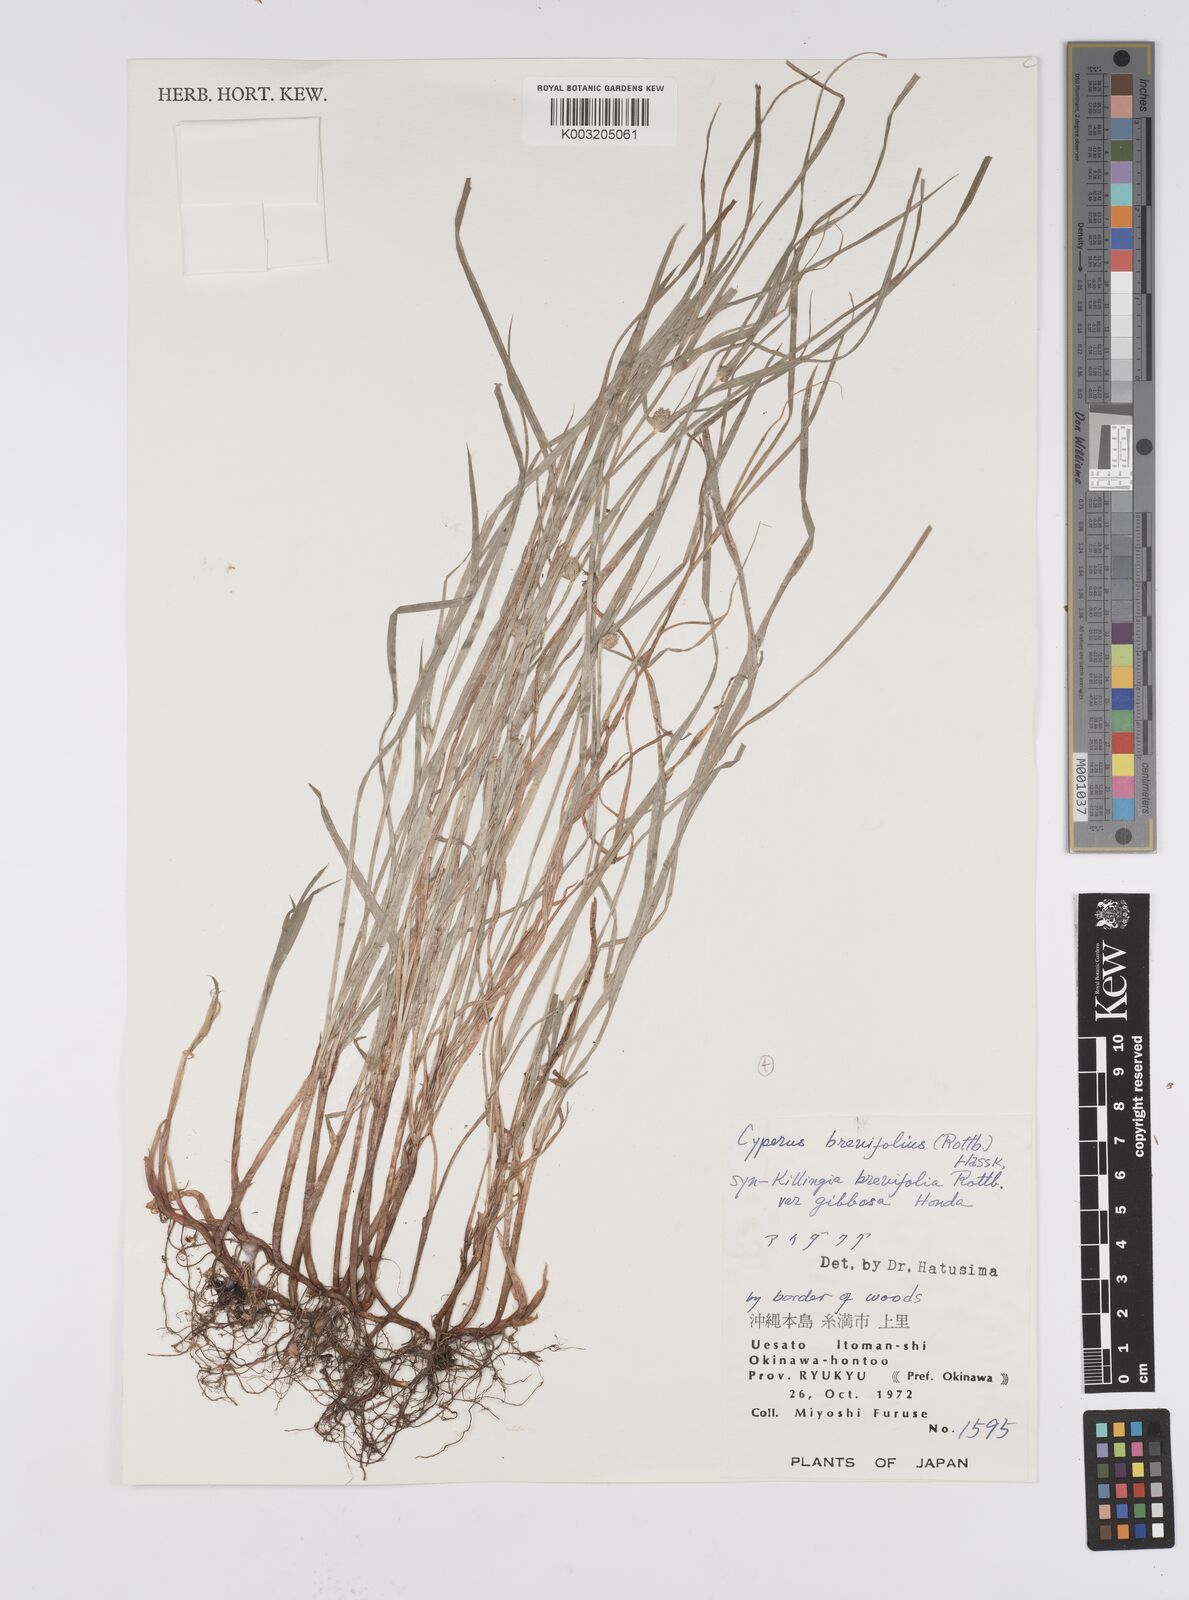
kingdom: Plantae
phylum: Tracheophyta
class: Liliopsida
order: Poales
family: Cyperaceae
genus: Cyperus
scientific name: Cyperus brevifolius
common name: Globe kyllinga
